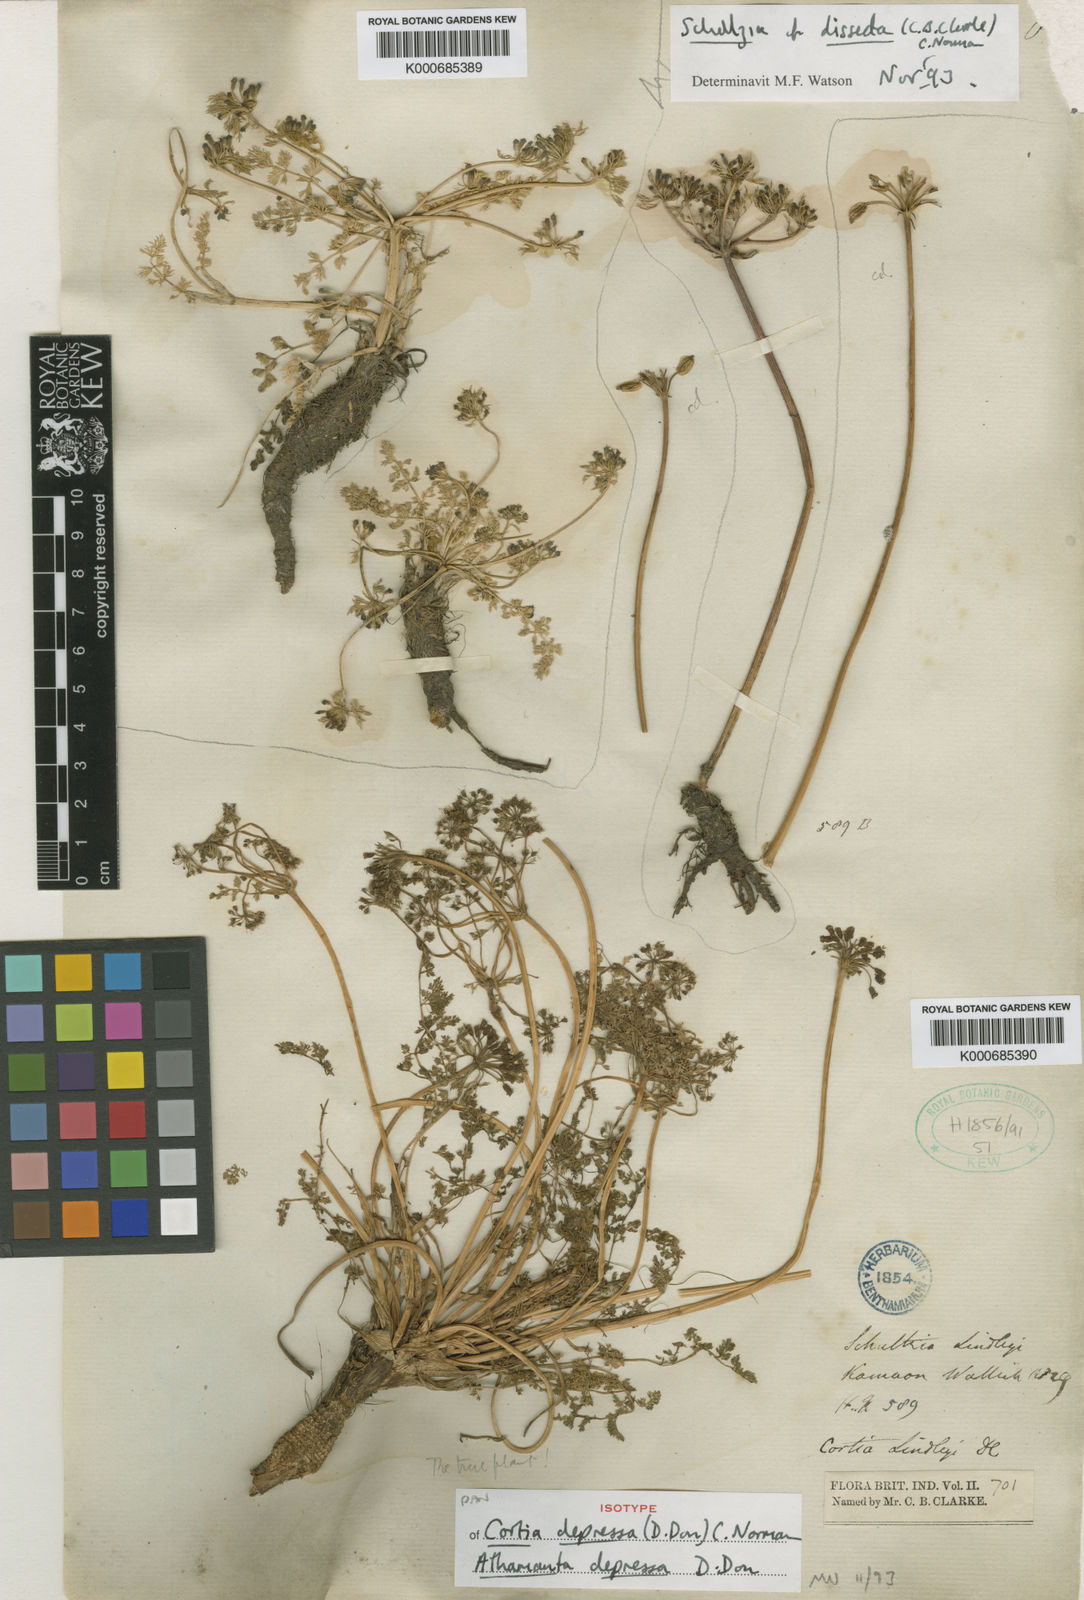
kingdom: Plantae
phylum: Tracheophyta
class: Magnoliopsida
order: Apiales
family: Apiaceae
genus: Cortia
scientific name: Cortia depressa
